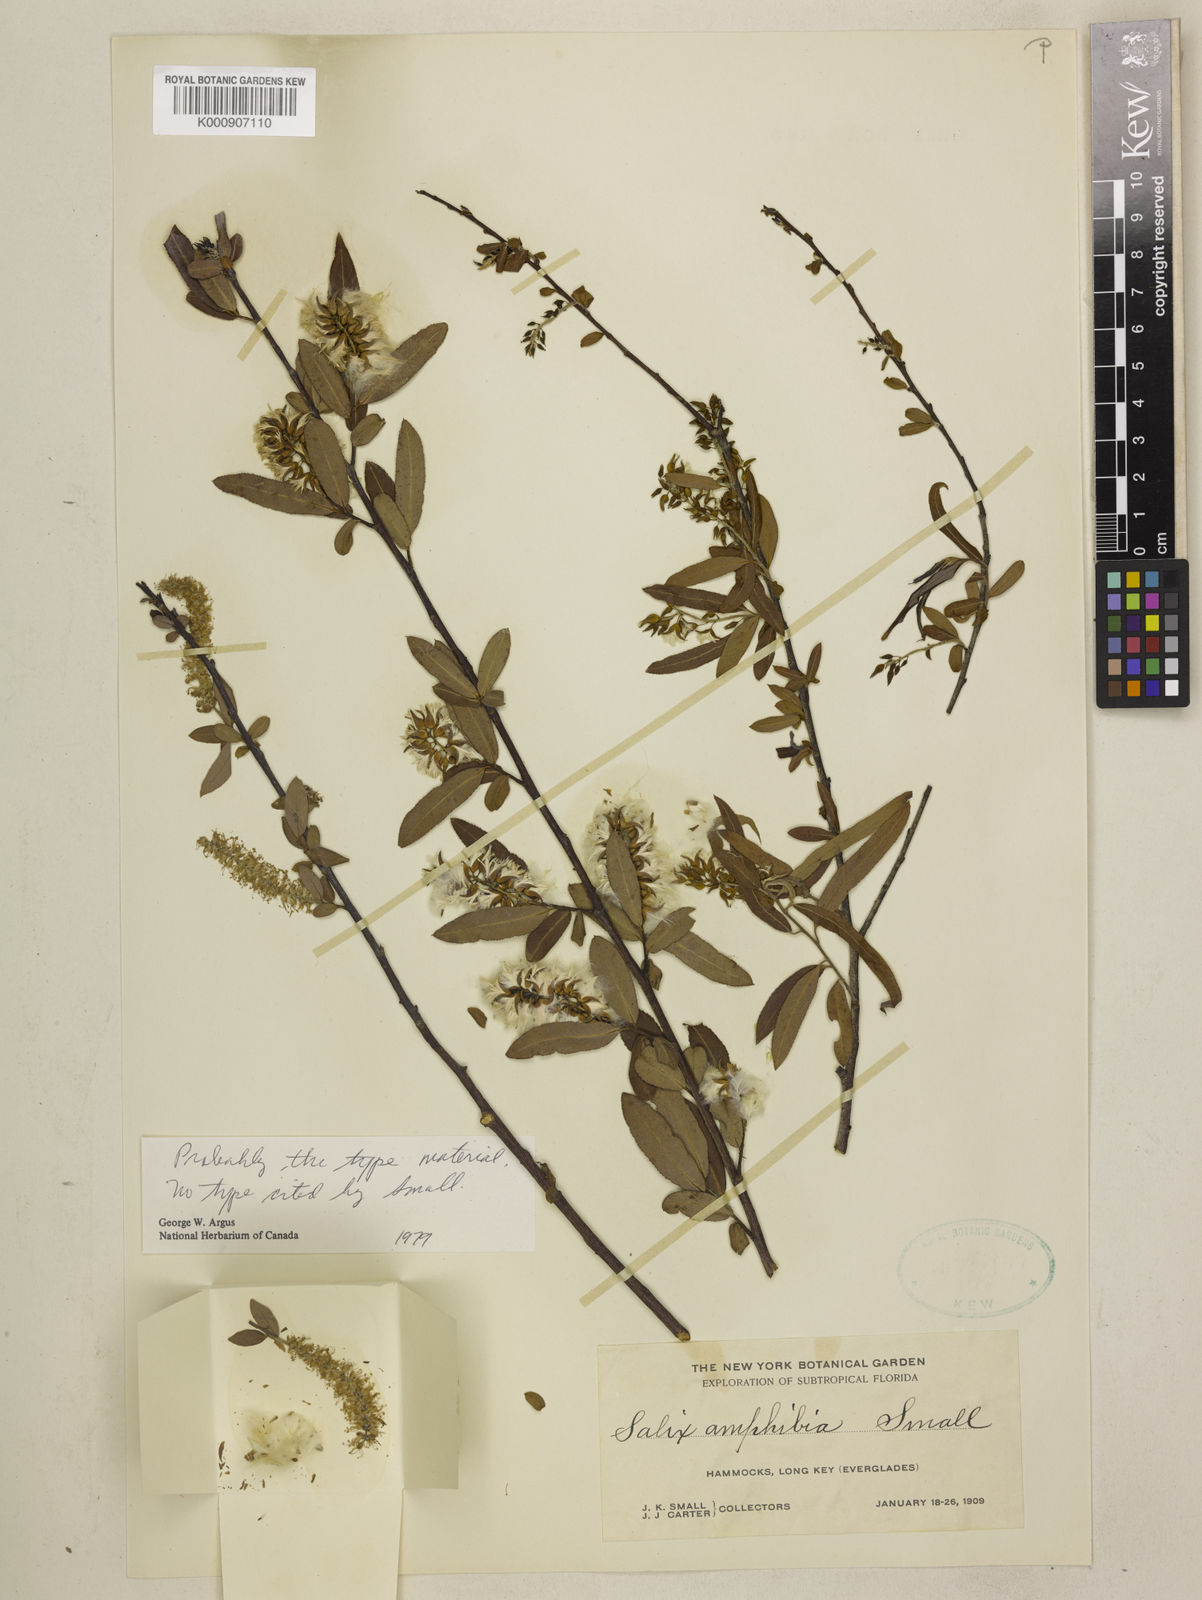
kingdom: Plantae
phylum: Tracheophyta
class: Magnoliopsida
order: Malpighiales
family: Salicaceae
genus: Salix
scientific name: Salix caroliniana
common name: Carolina willow
